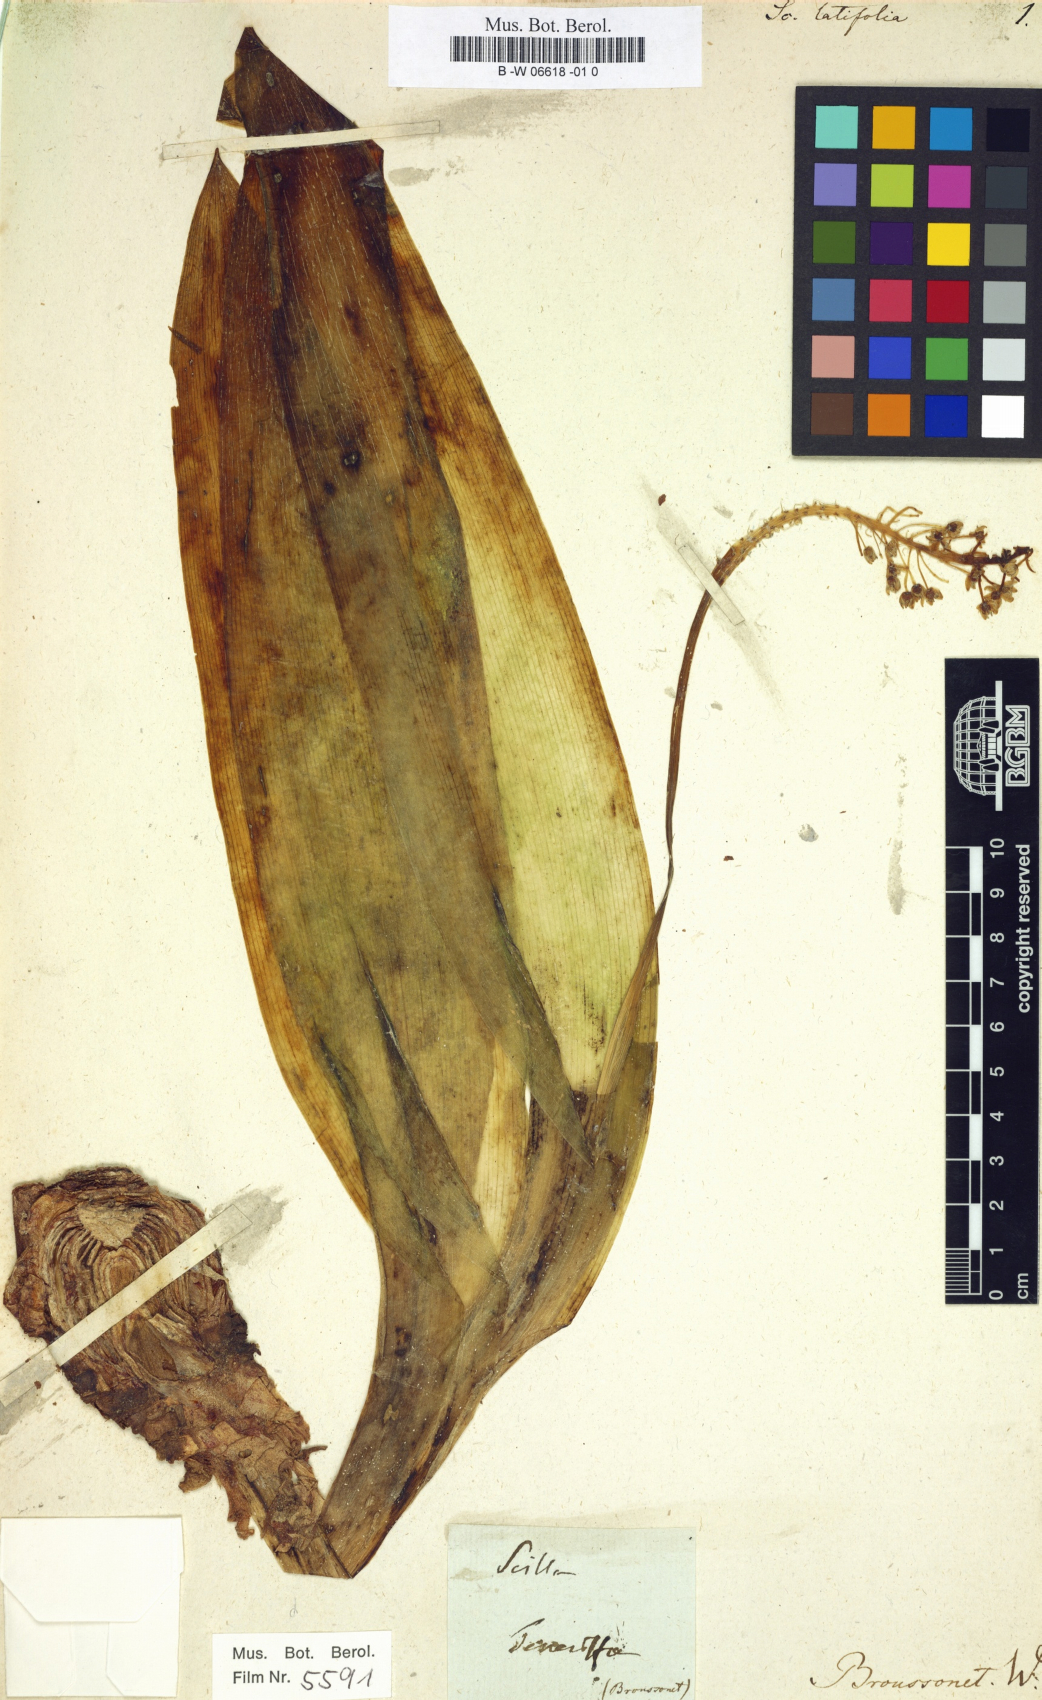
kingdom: Plantae
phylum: Tracheophyta
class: Liliopsida
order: Asparagales
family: Asparagaceae
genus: Scilla
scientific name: Scilla latifolia
